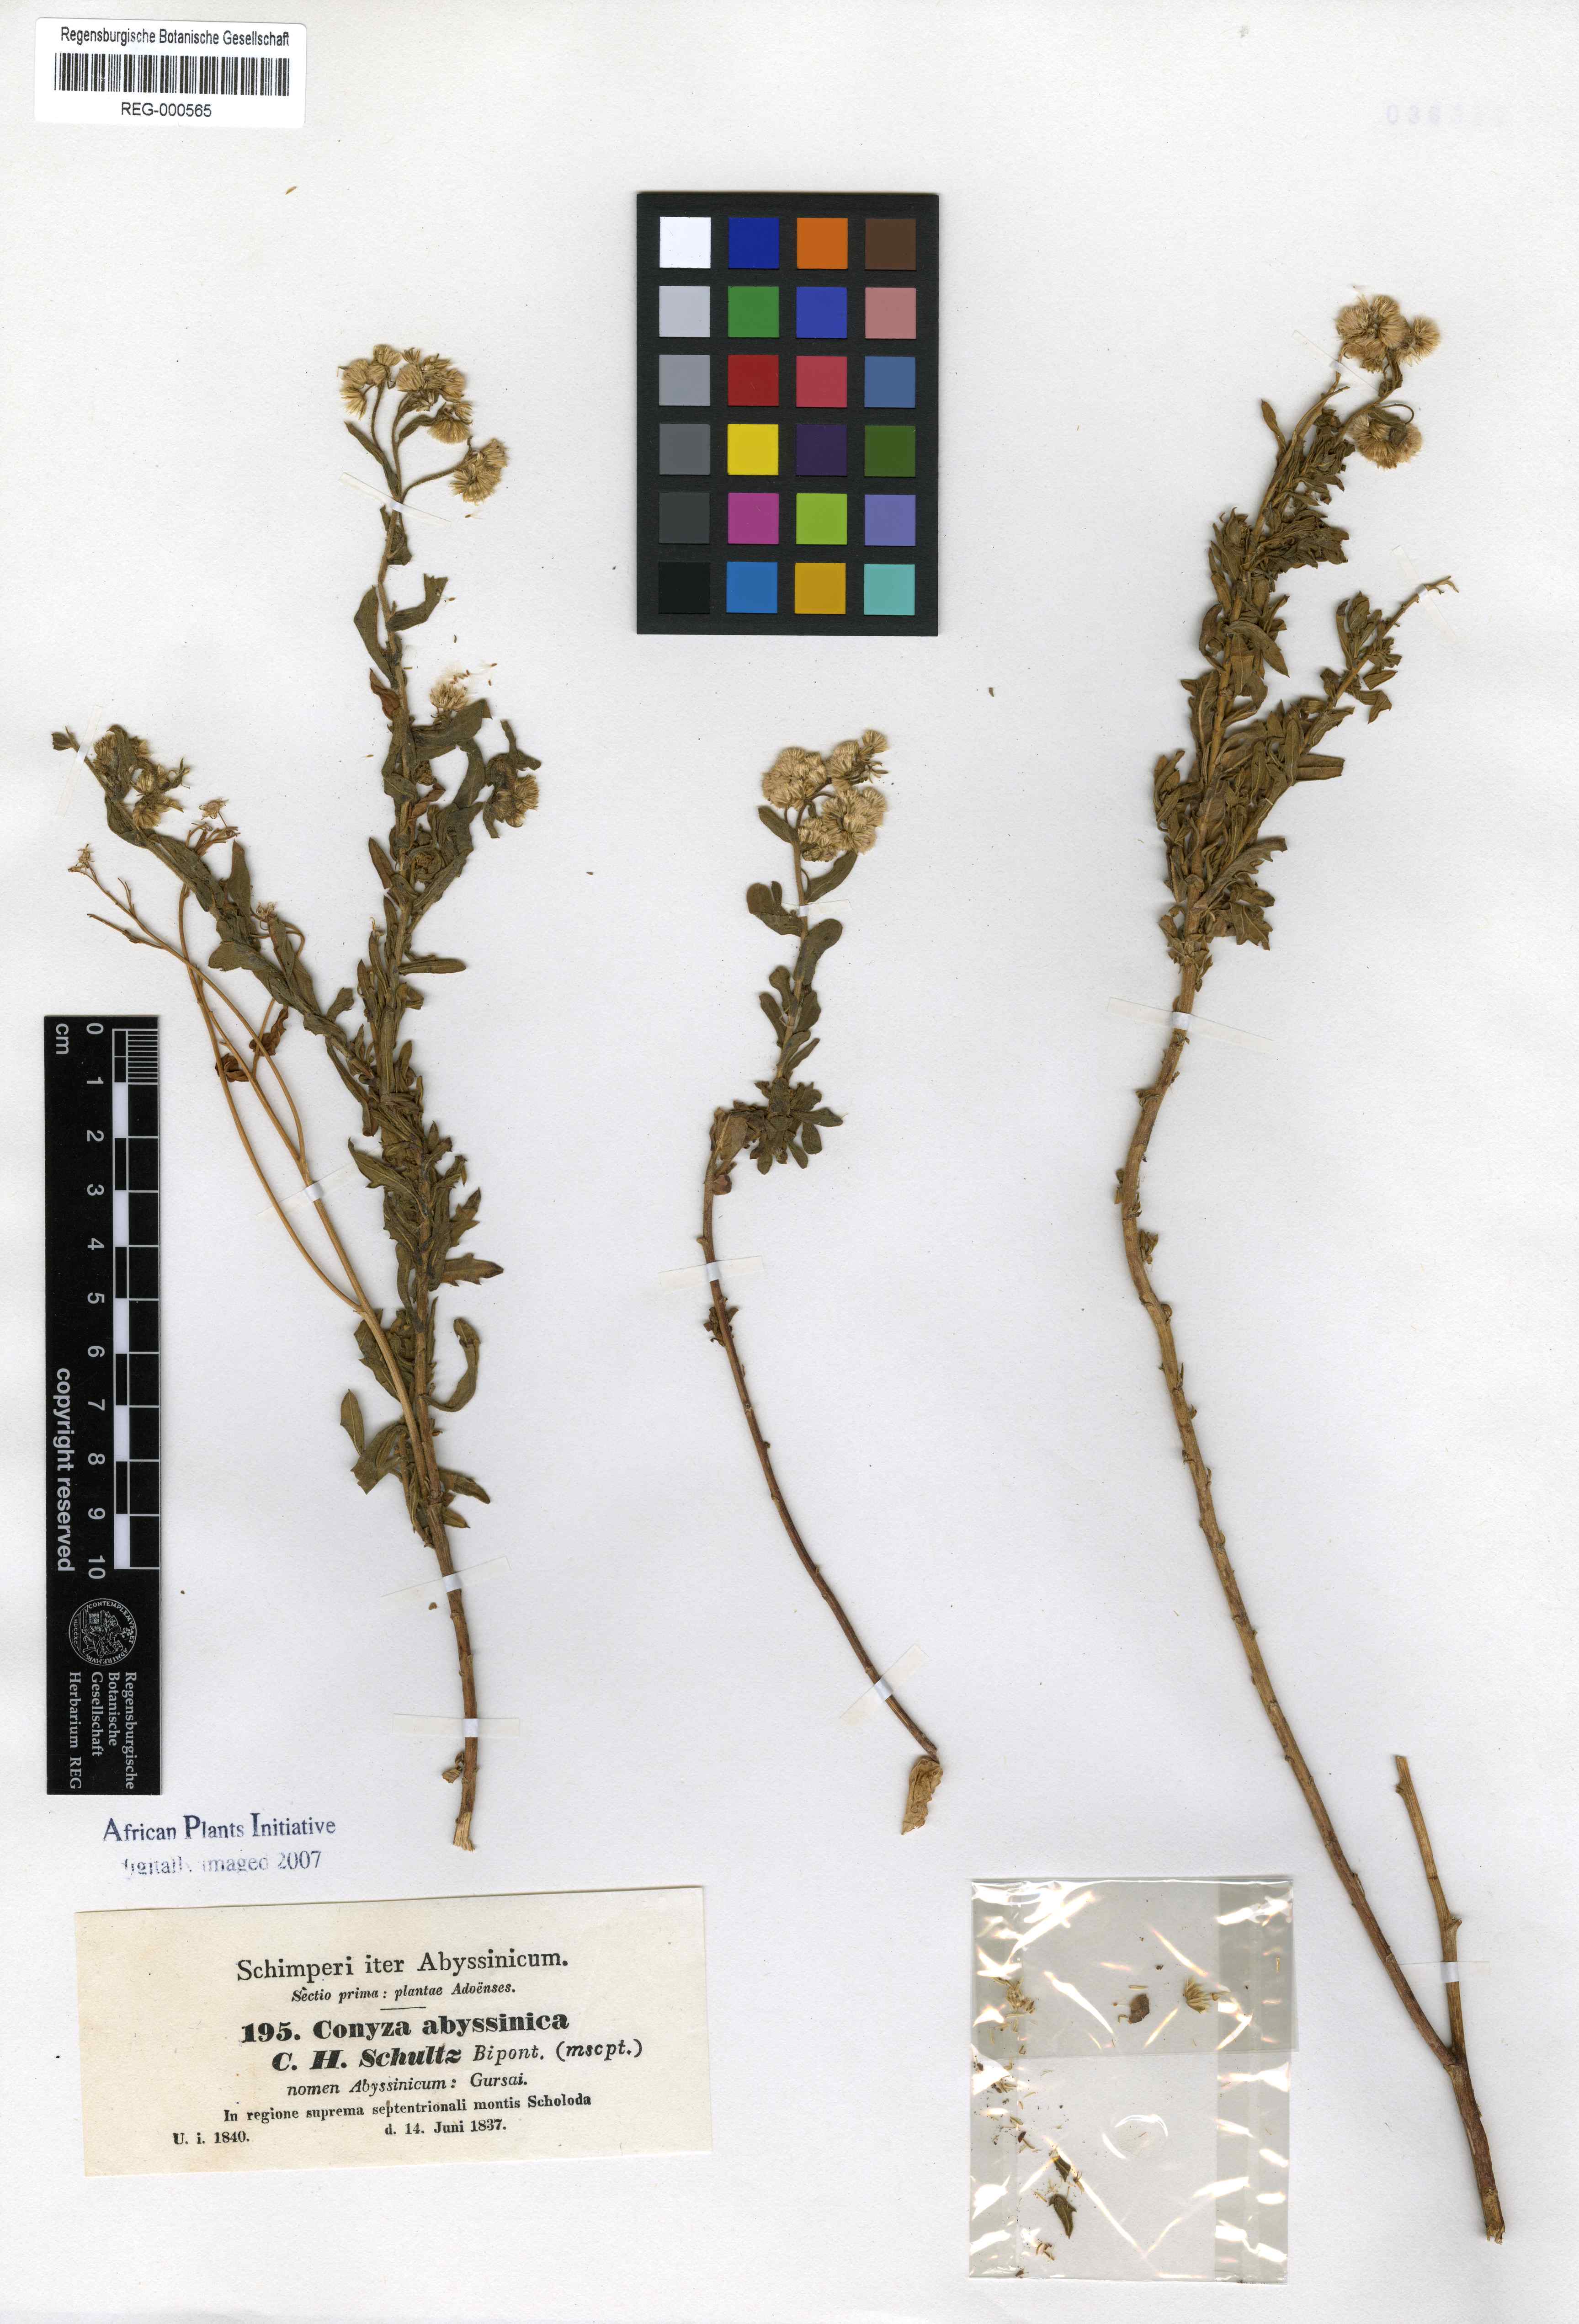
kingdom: Plantae
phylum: Tracheophyta
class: Magnoliopsida
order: Asterales
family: Asteraceae
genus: Conyza
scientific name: Conyza abyssinica
